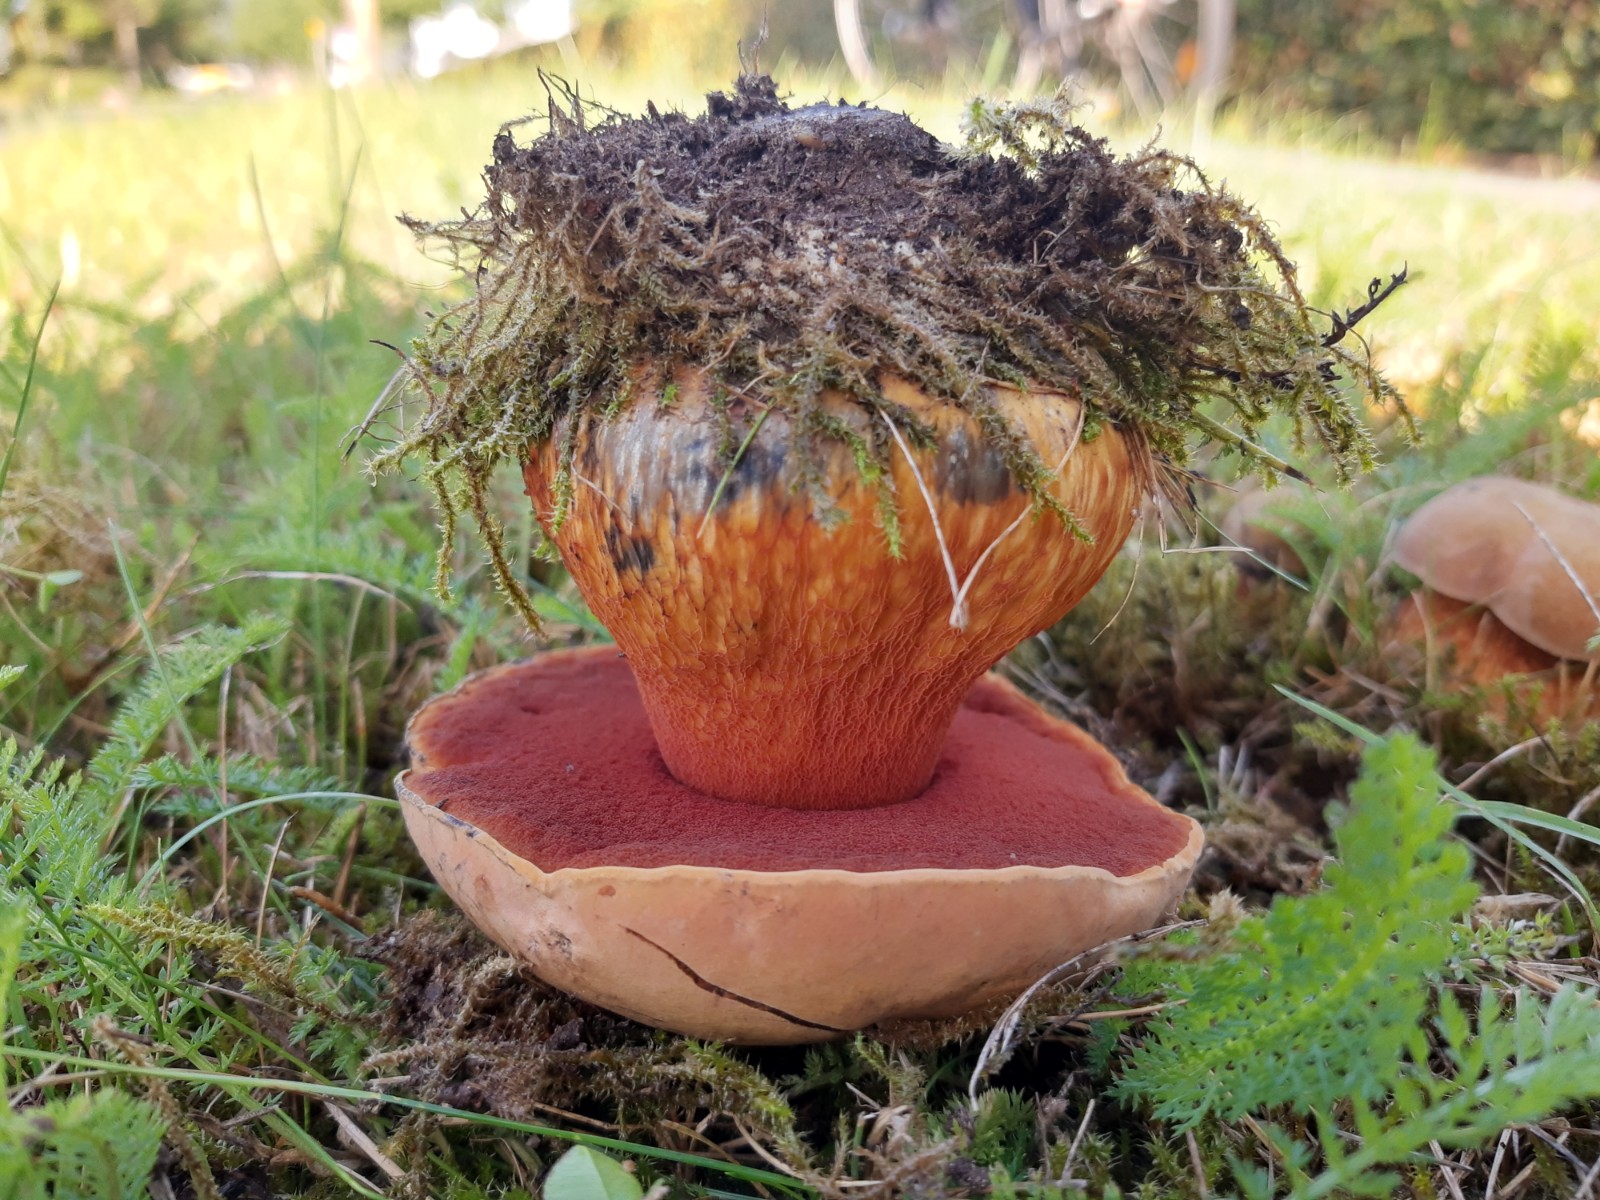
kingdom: Fungi
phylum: Basidiomycota
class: Agaricomycetes
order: Boletales
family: Boletaceae
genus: Suillellus
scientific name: Suillellus luridus
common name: netstokket indigorørhat
